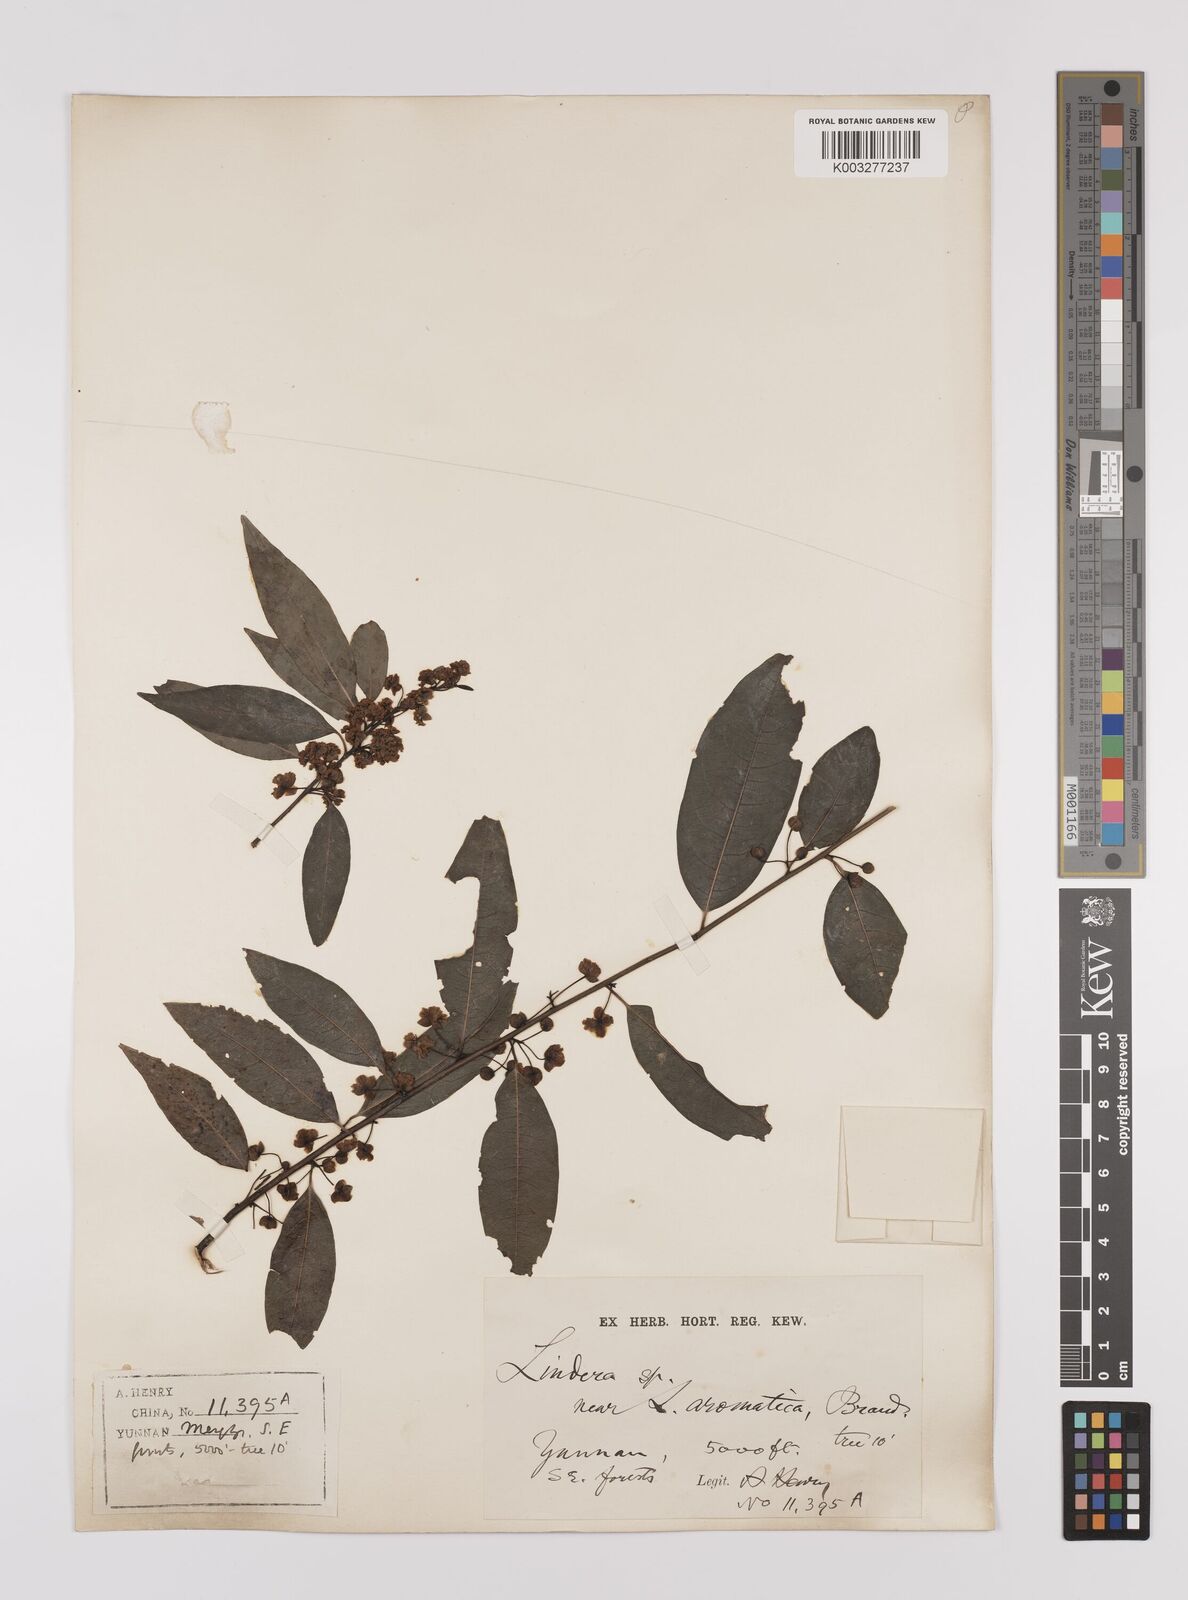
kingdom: Plantae
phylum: Tracheophyta
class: Magnoliopsida
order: Laurales
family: Lauraceae
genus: Lindera
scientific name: Lindera pipericarpa
